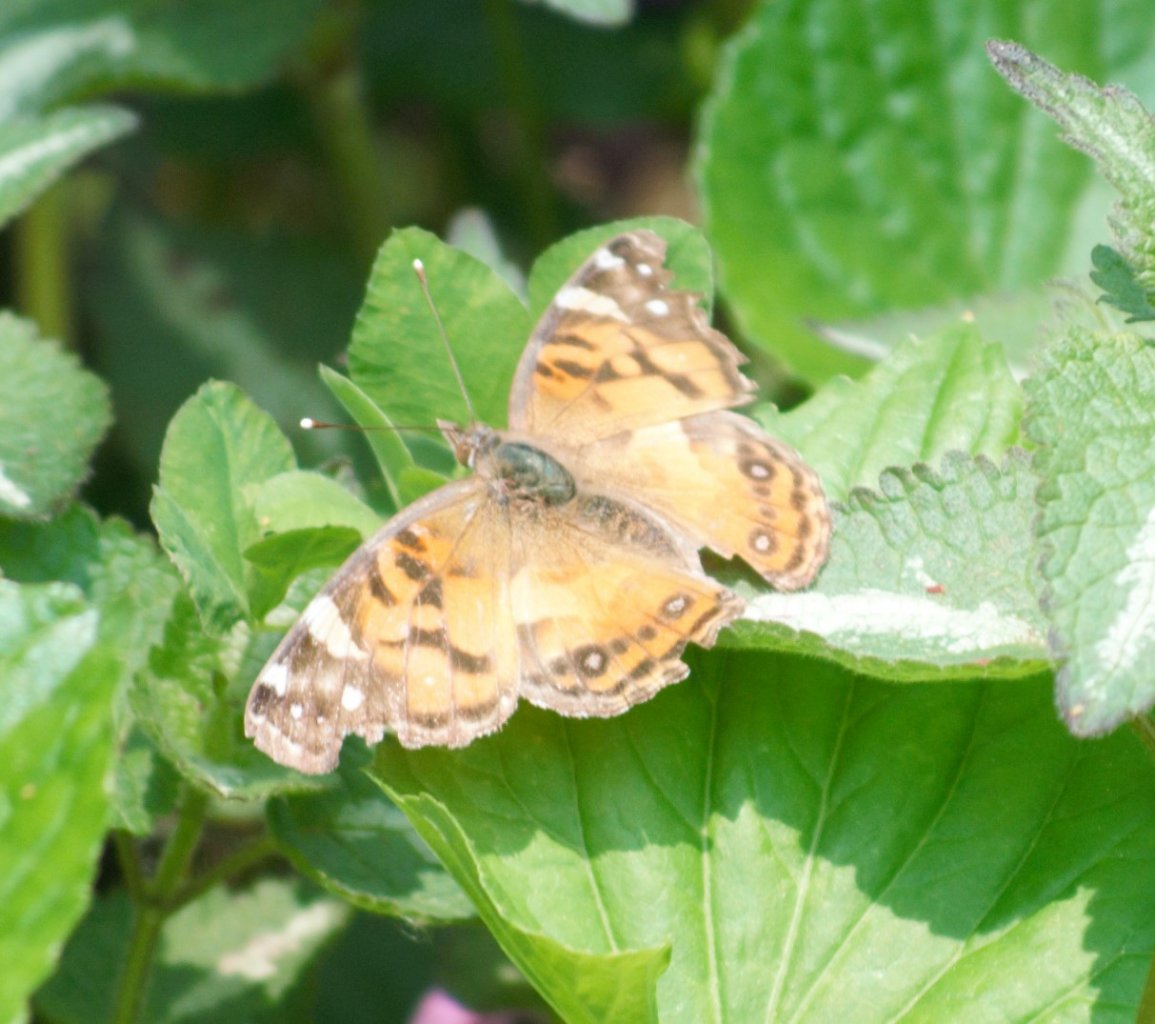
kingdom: Animalia
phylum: Arthropoda
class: Insecta
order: Lepidoptera
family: Nymphalidae
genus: Vanessa
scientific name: Vanessa virginiensis
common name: American Lady
